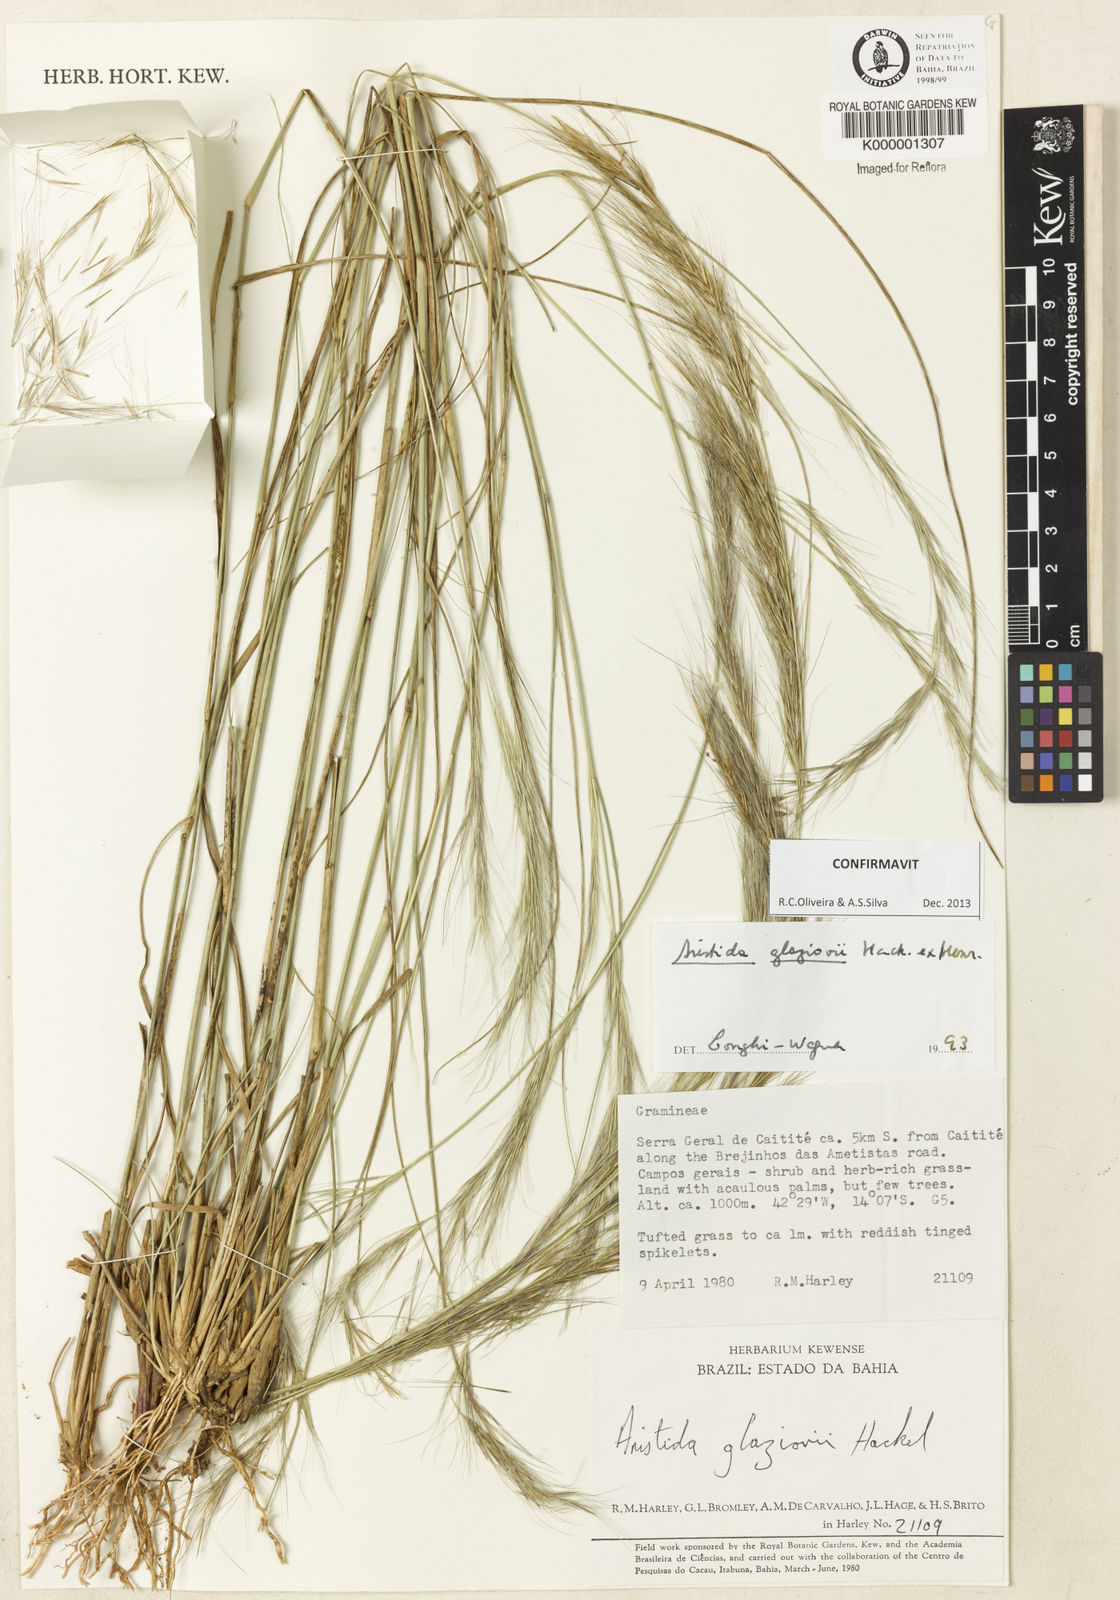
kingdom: Plantae
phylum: Tracheophyta
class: Liliopsida
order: Poales
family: Poaceae
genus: Aristida
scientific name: Aristida
